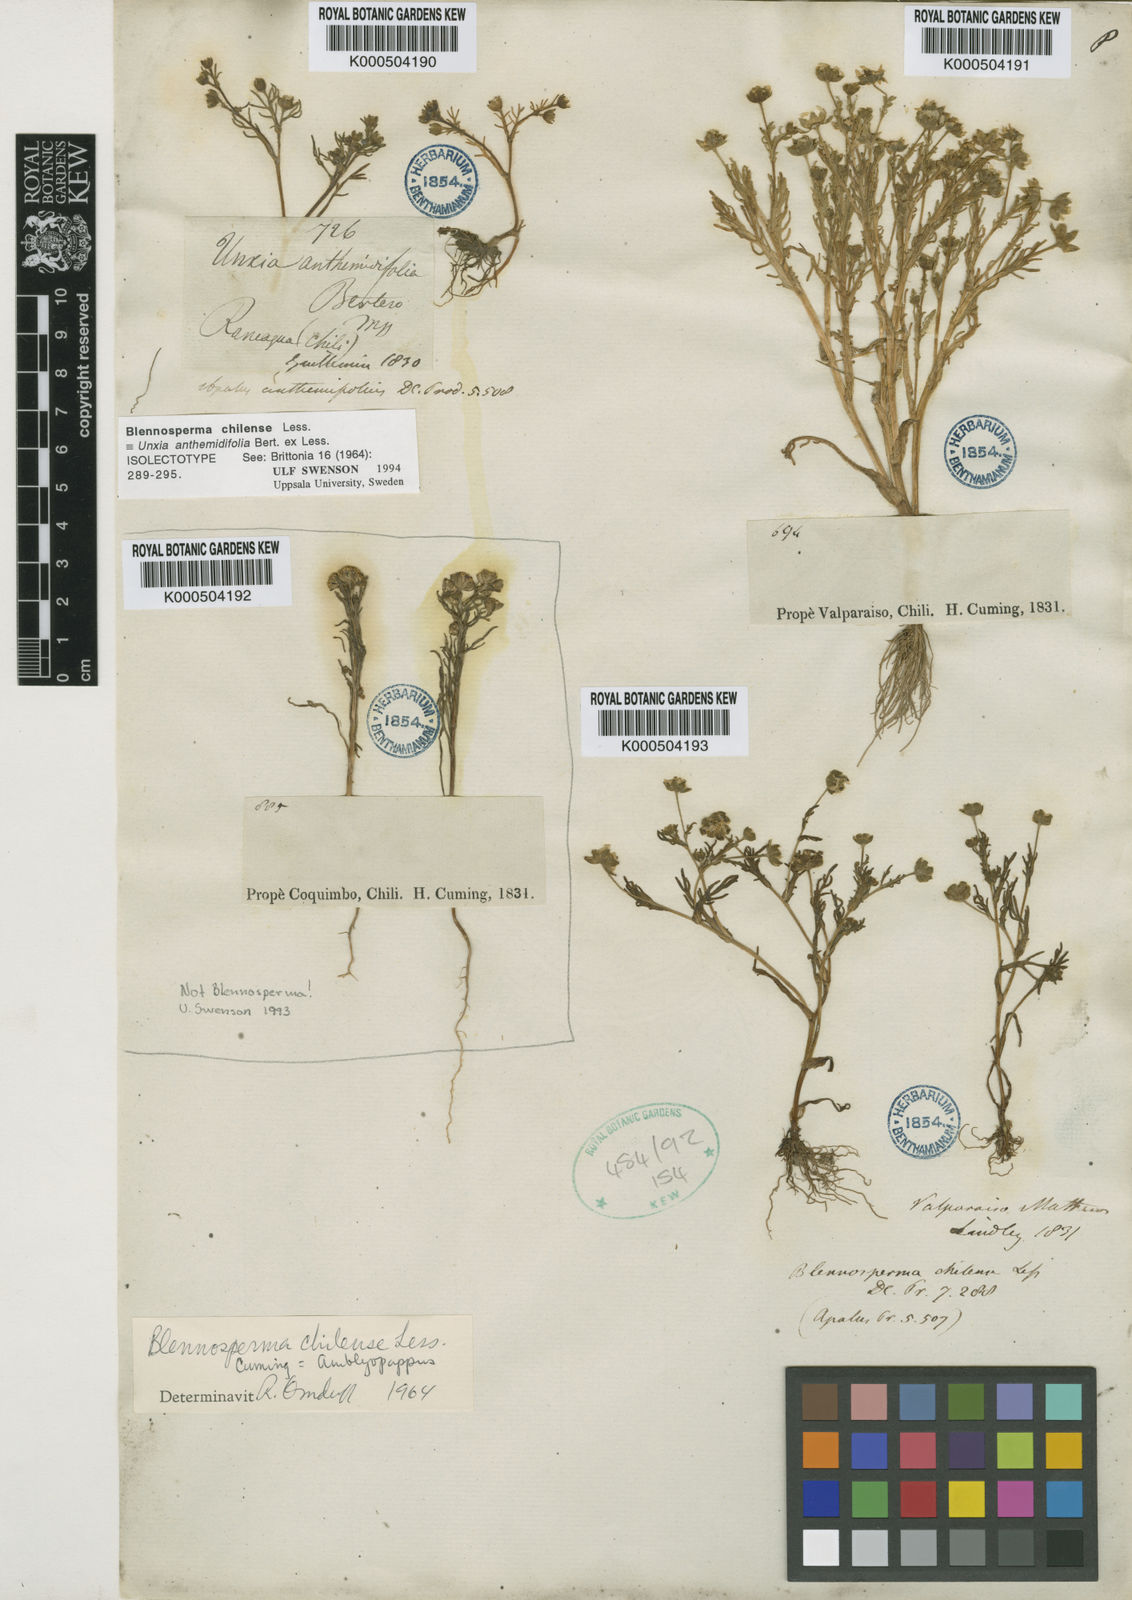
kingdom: Plantae
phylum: Tracheophyta
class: Magnoliopsida
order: Asterales
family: Asteraceae
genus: Blennosperma
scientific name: Blennosperma chilense
